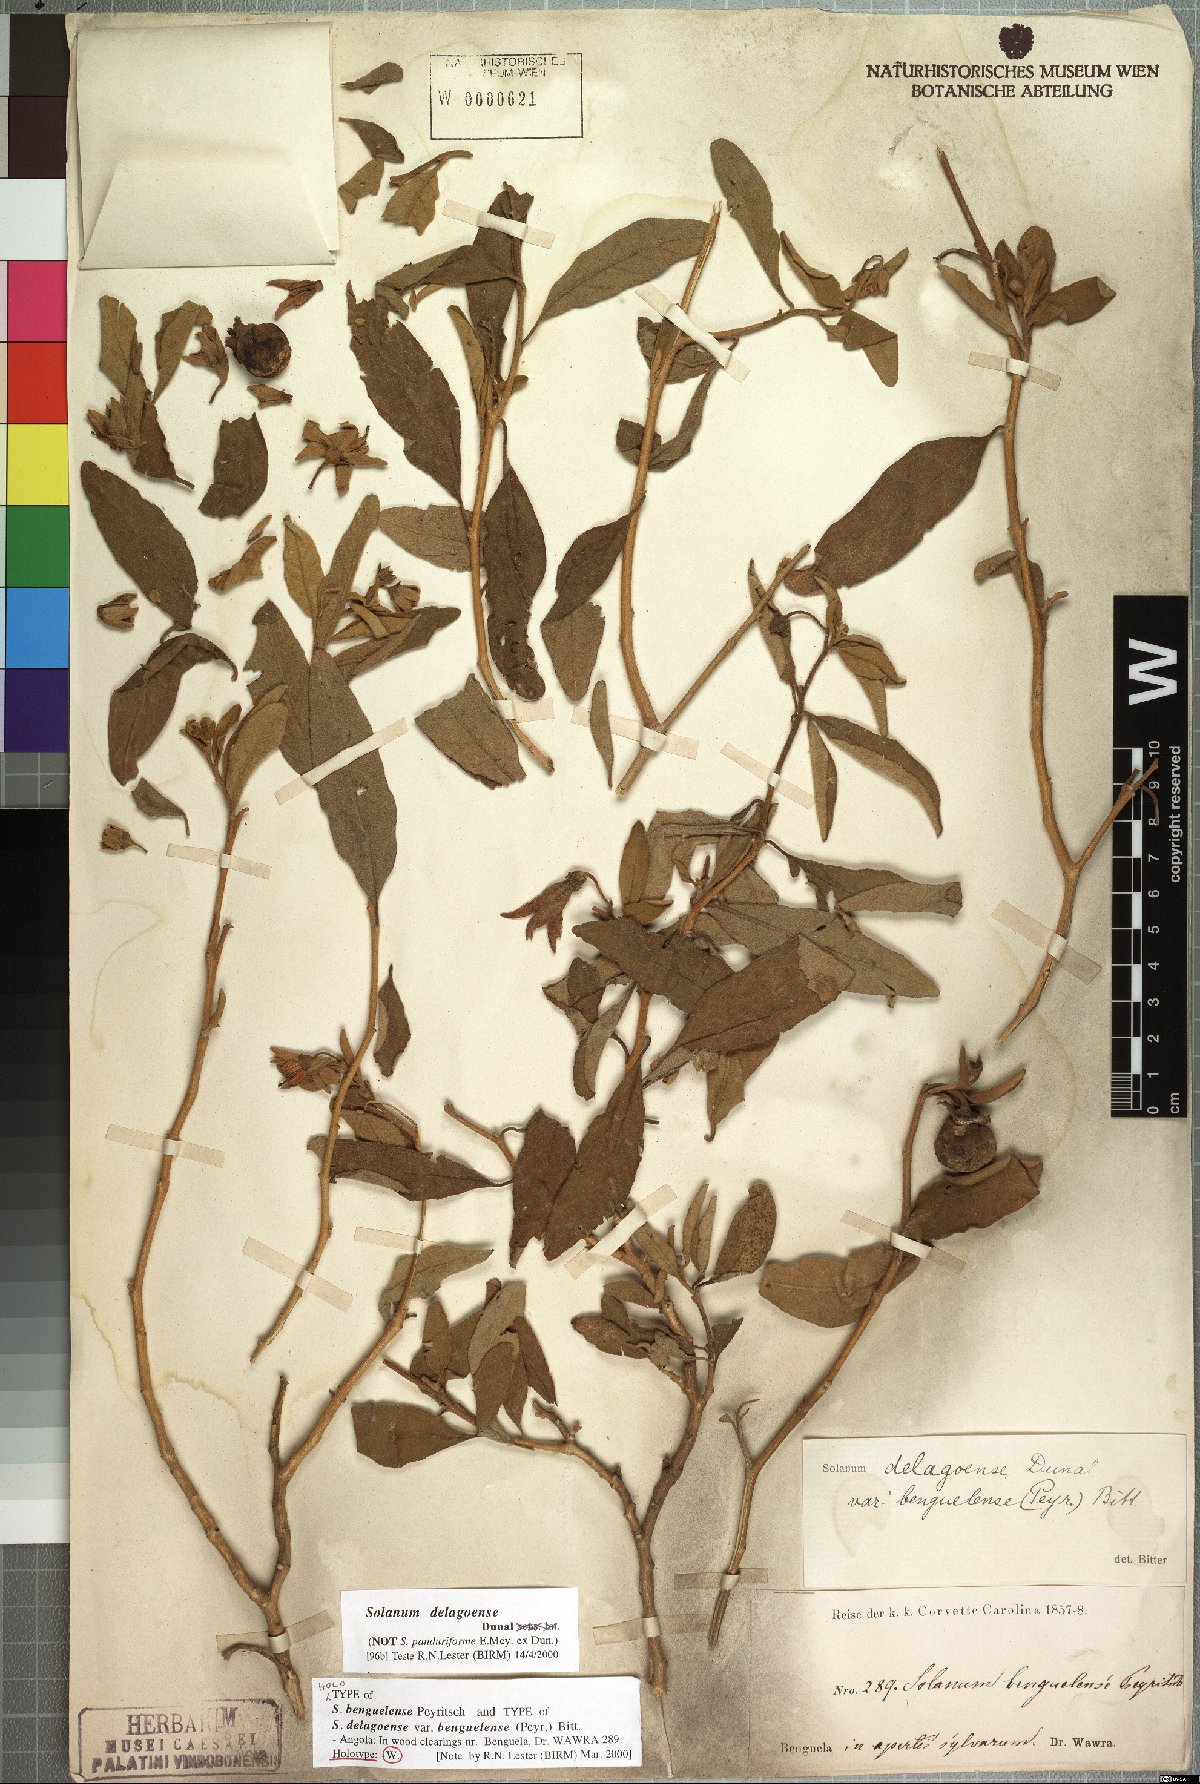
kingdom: Plantae
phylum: Tracheophyta
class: Magnoliopsida
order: Solanales
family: Solanaceae
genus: Solanum
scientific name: Solanum campylacanthum
